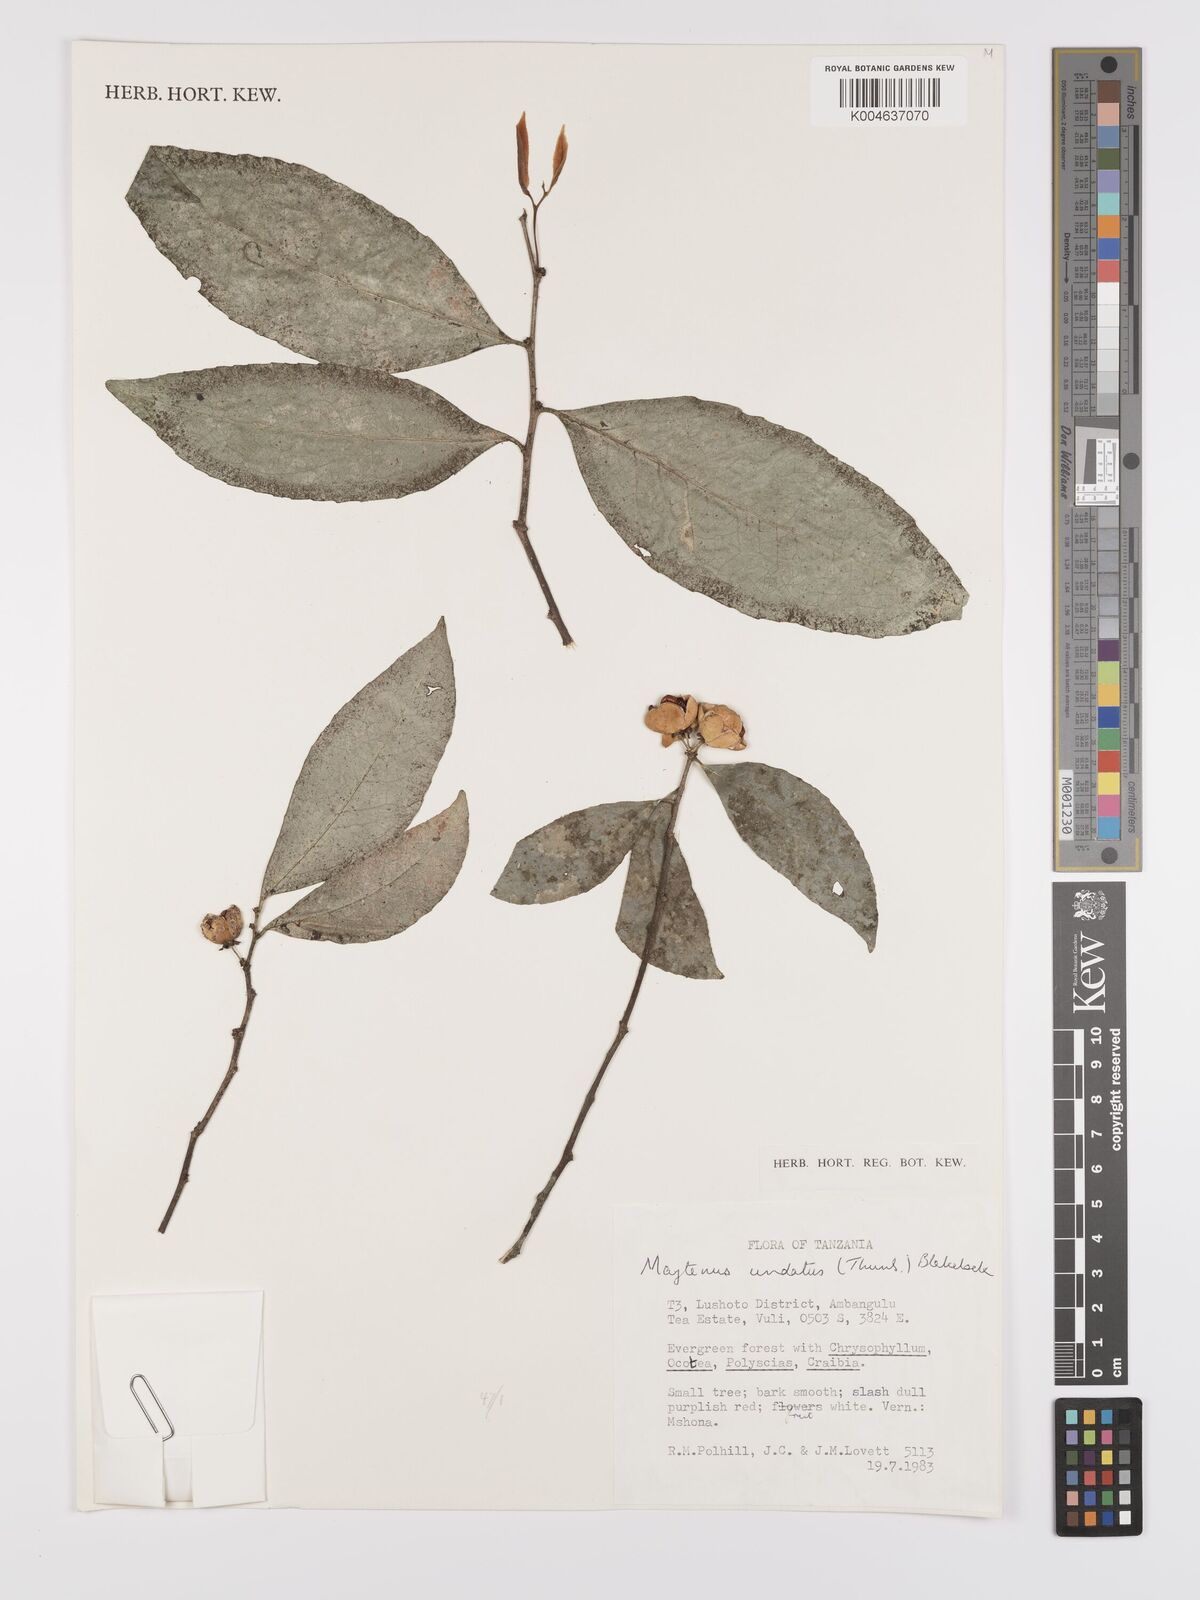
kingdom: Plantae
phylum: Tracheophyta
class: Magnoliopsida
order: Celastrales
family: Celastraceae
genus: Gymnosporia
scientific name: Gymnosporia undata
